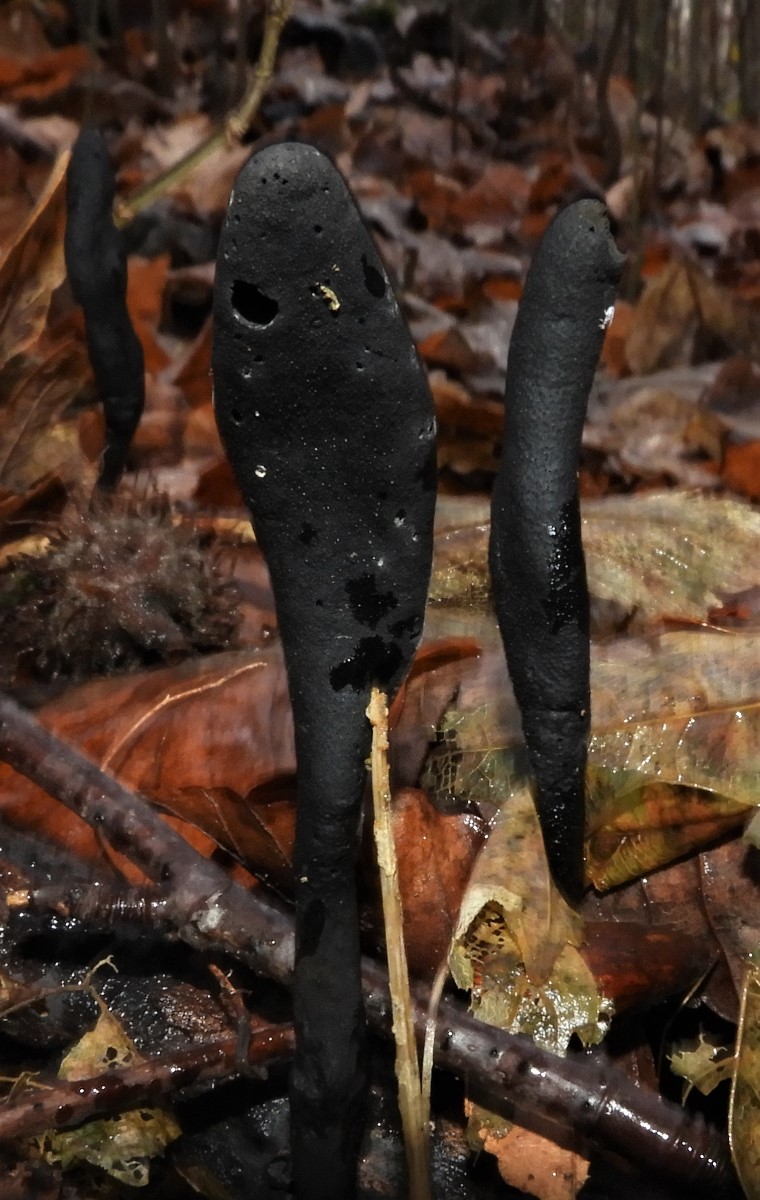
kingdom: Fungi
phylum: Ascomycota
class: Sordariomycetes
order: Xylariales
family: Xylariaceae
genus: Xylaria
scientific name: Xylaria longipes
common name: slank stødsvamp
